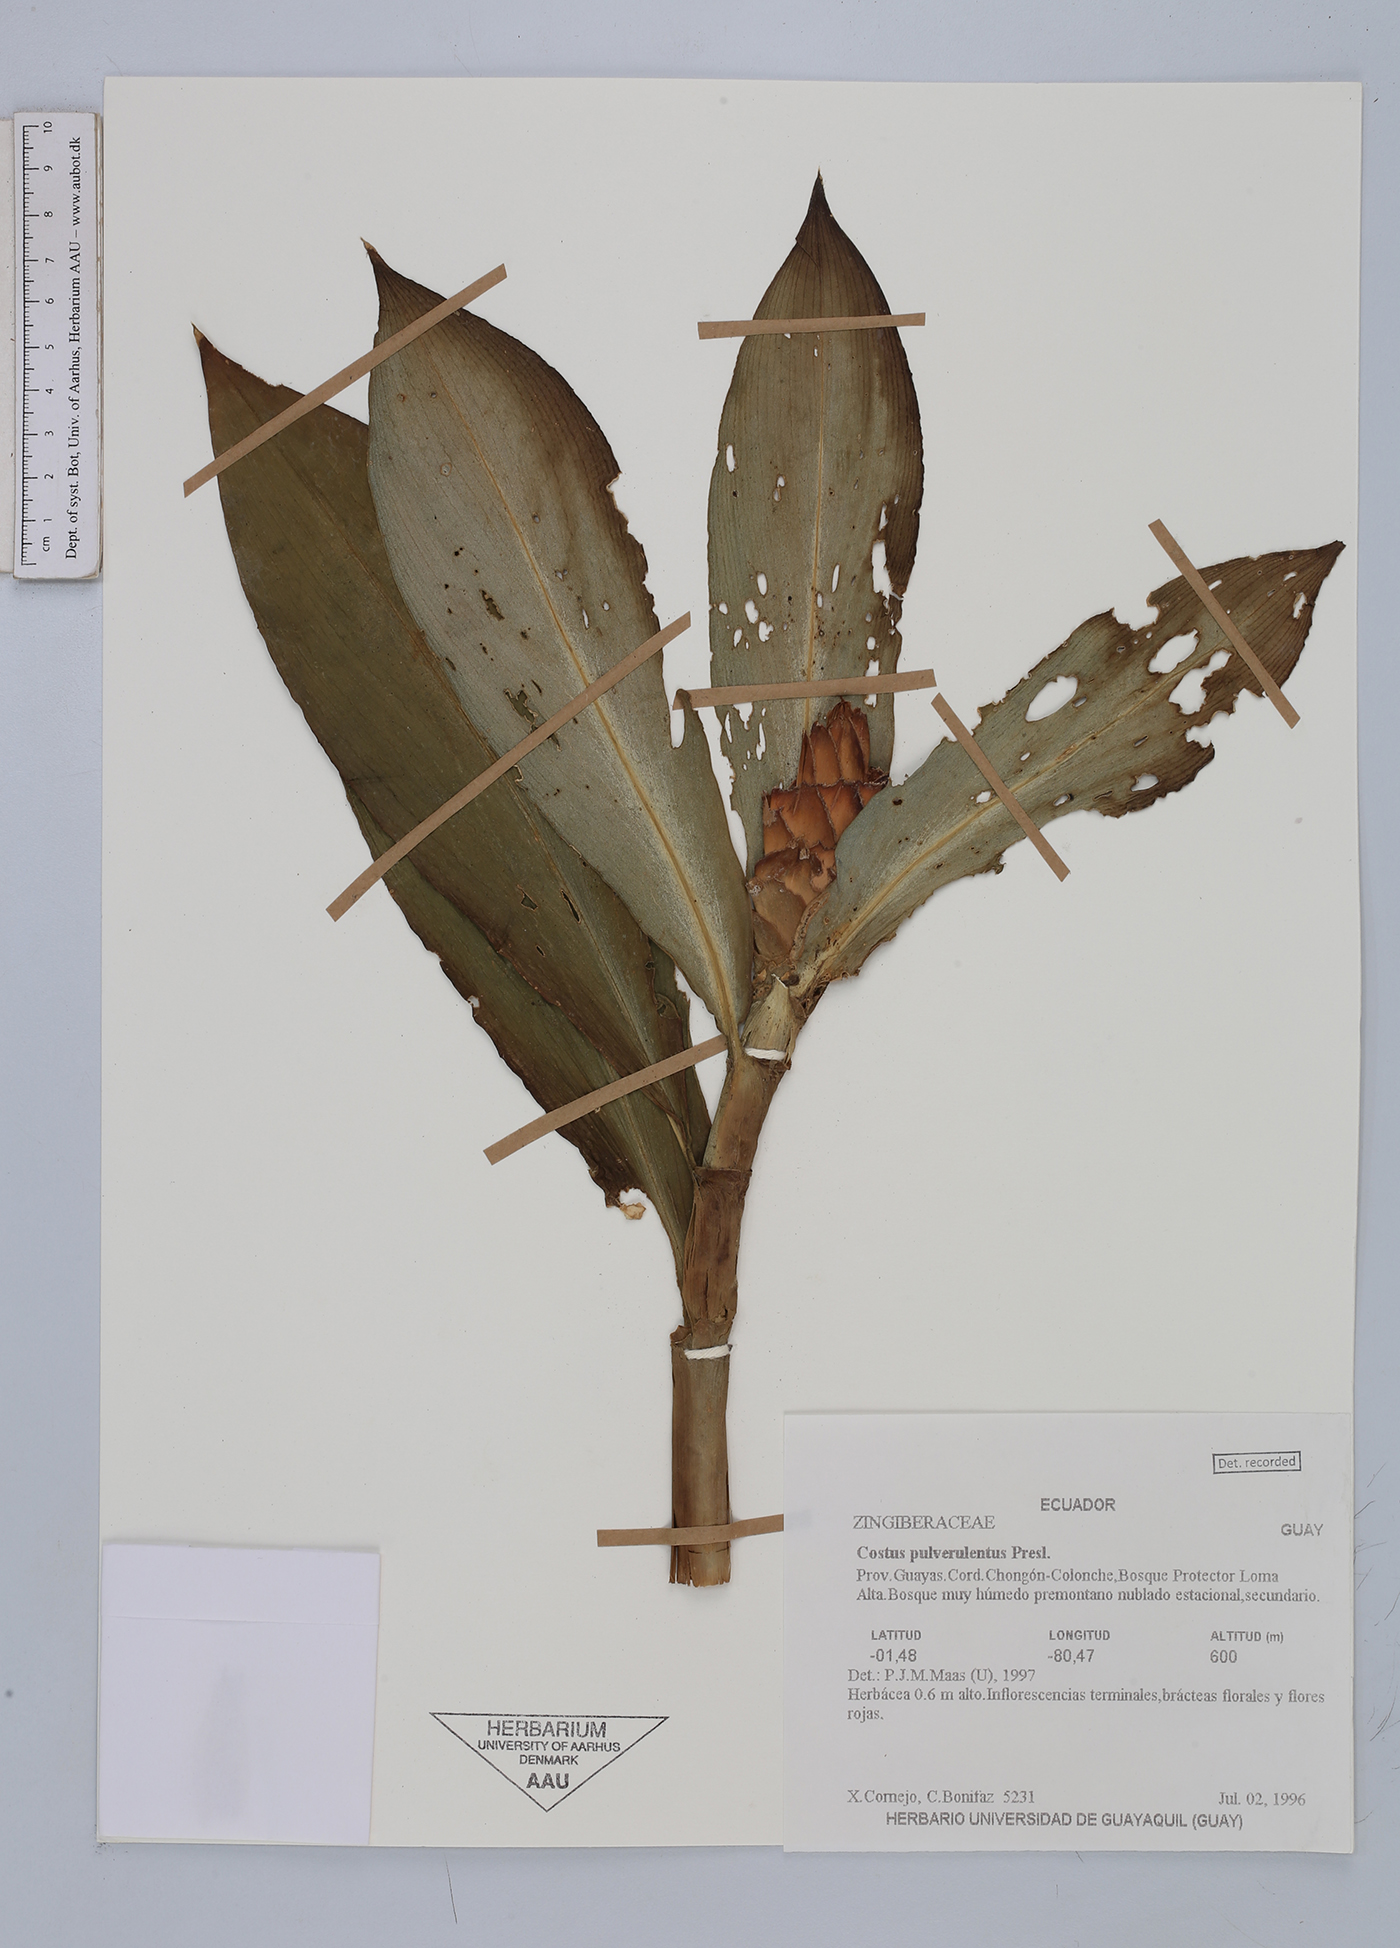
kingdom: Plantae
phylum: Tracheophyta
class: Liliopsida
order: Zingiberales
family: Costaceae
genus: Costus
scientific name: Costus pulverulentus
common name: Spiral ginger
